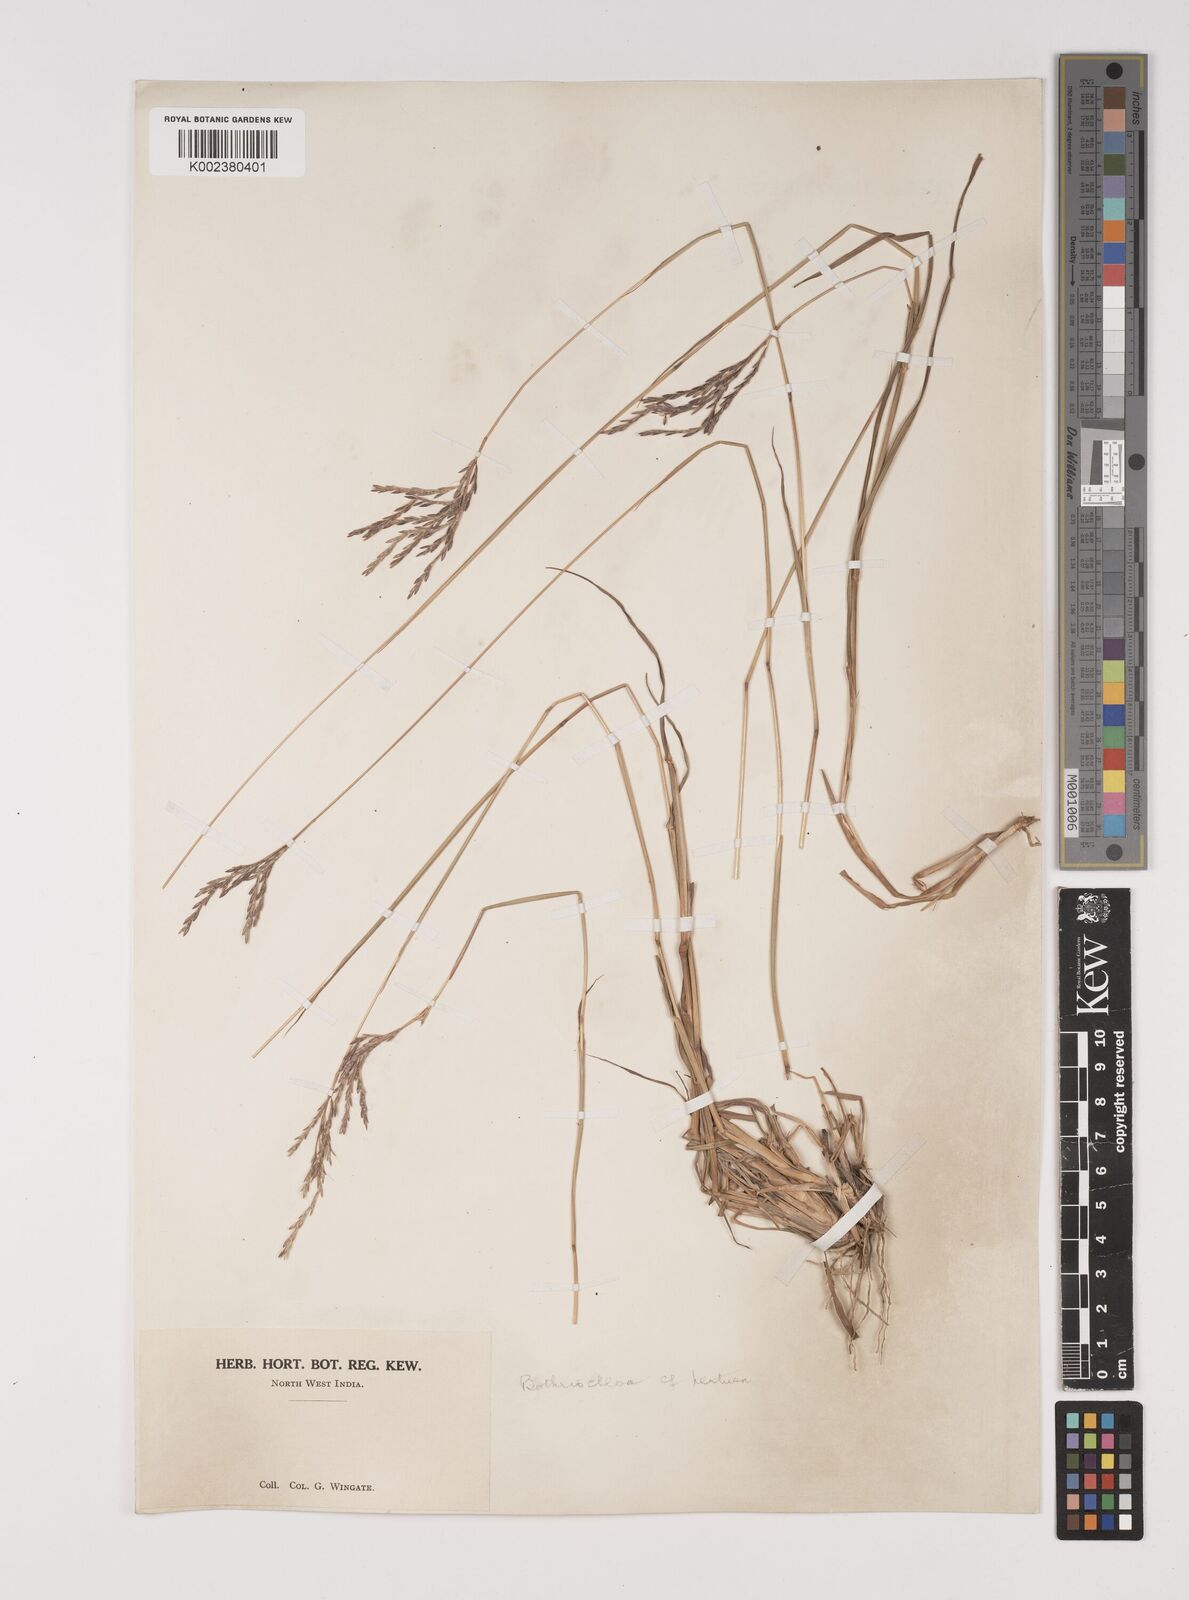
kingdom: Plantae
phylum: Tracheophyta
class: Liliopsida
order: Poales
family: Poaceae
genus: Bothriochloa
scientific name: Bothriochloa pertusa
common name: Pitted beardgrass
